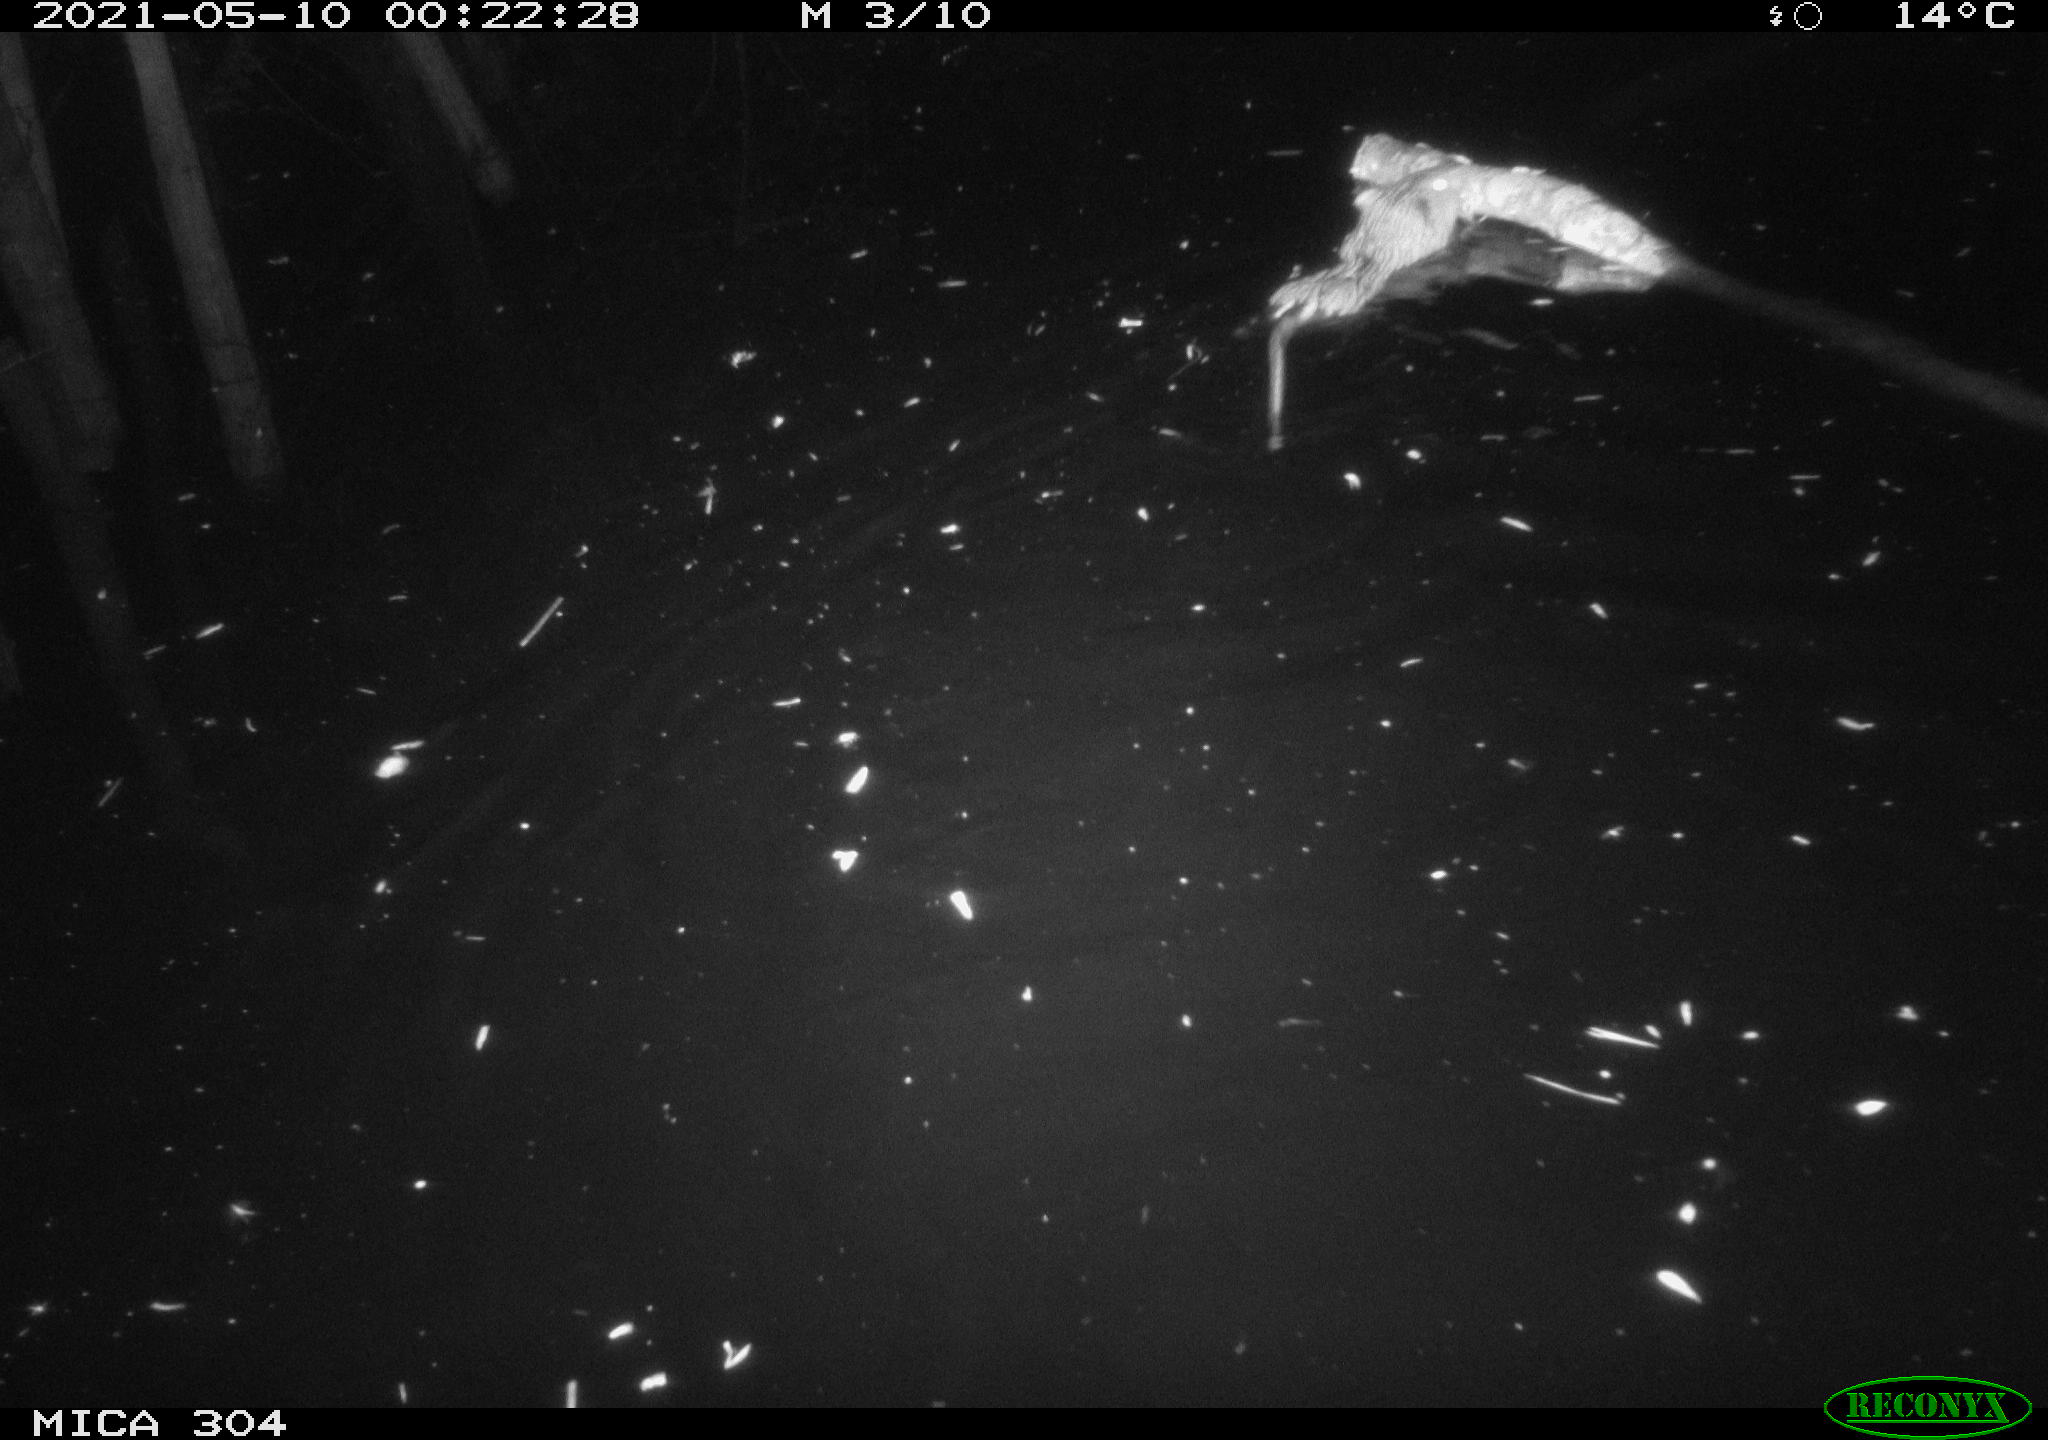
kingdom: Animalia
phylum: Chordata
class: Mammalia
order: Rodentia
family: Cricetidae
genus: Ondatra
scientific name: Ondatra zibethicus
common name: Muskrat
